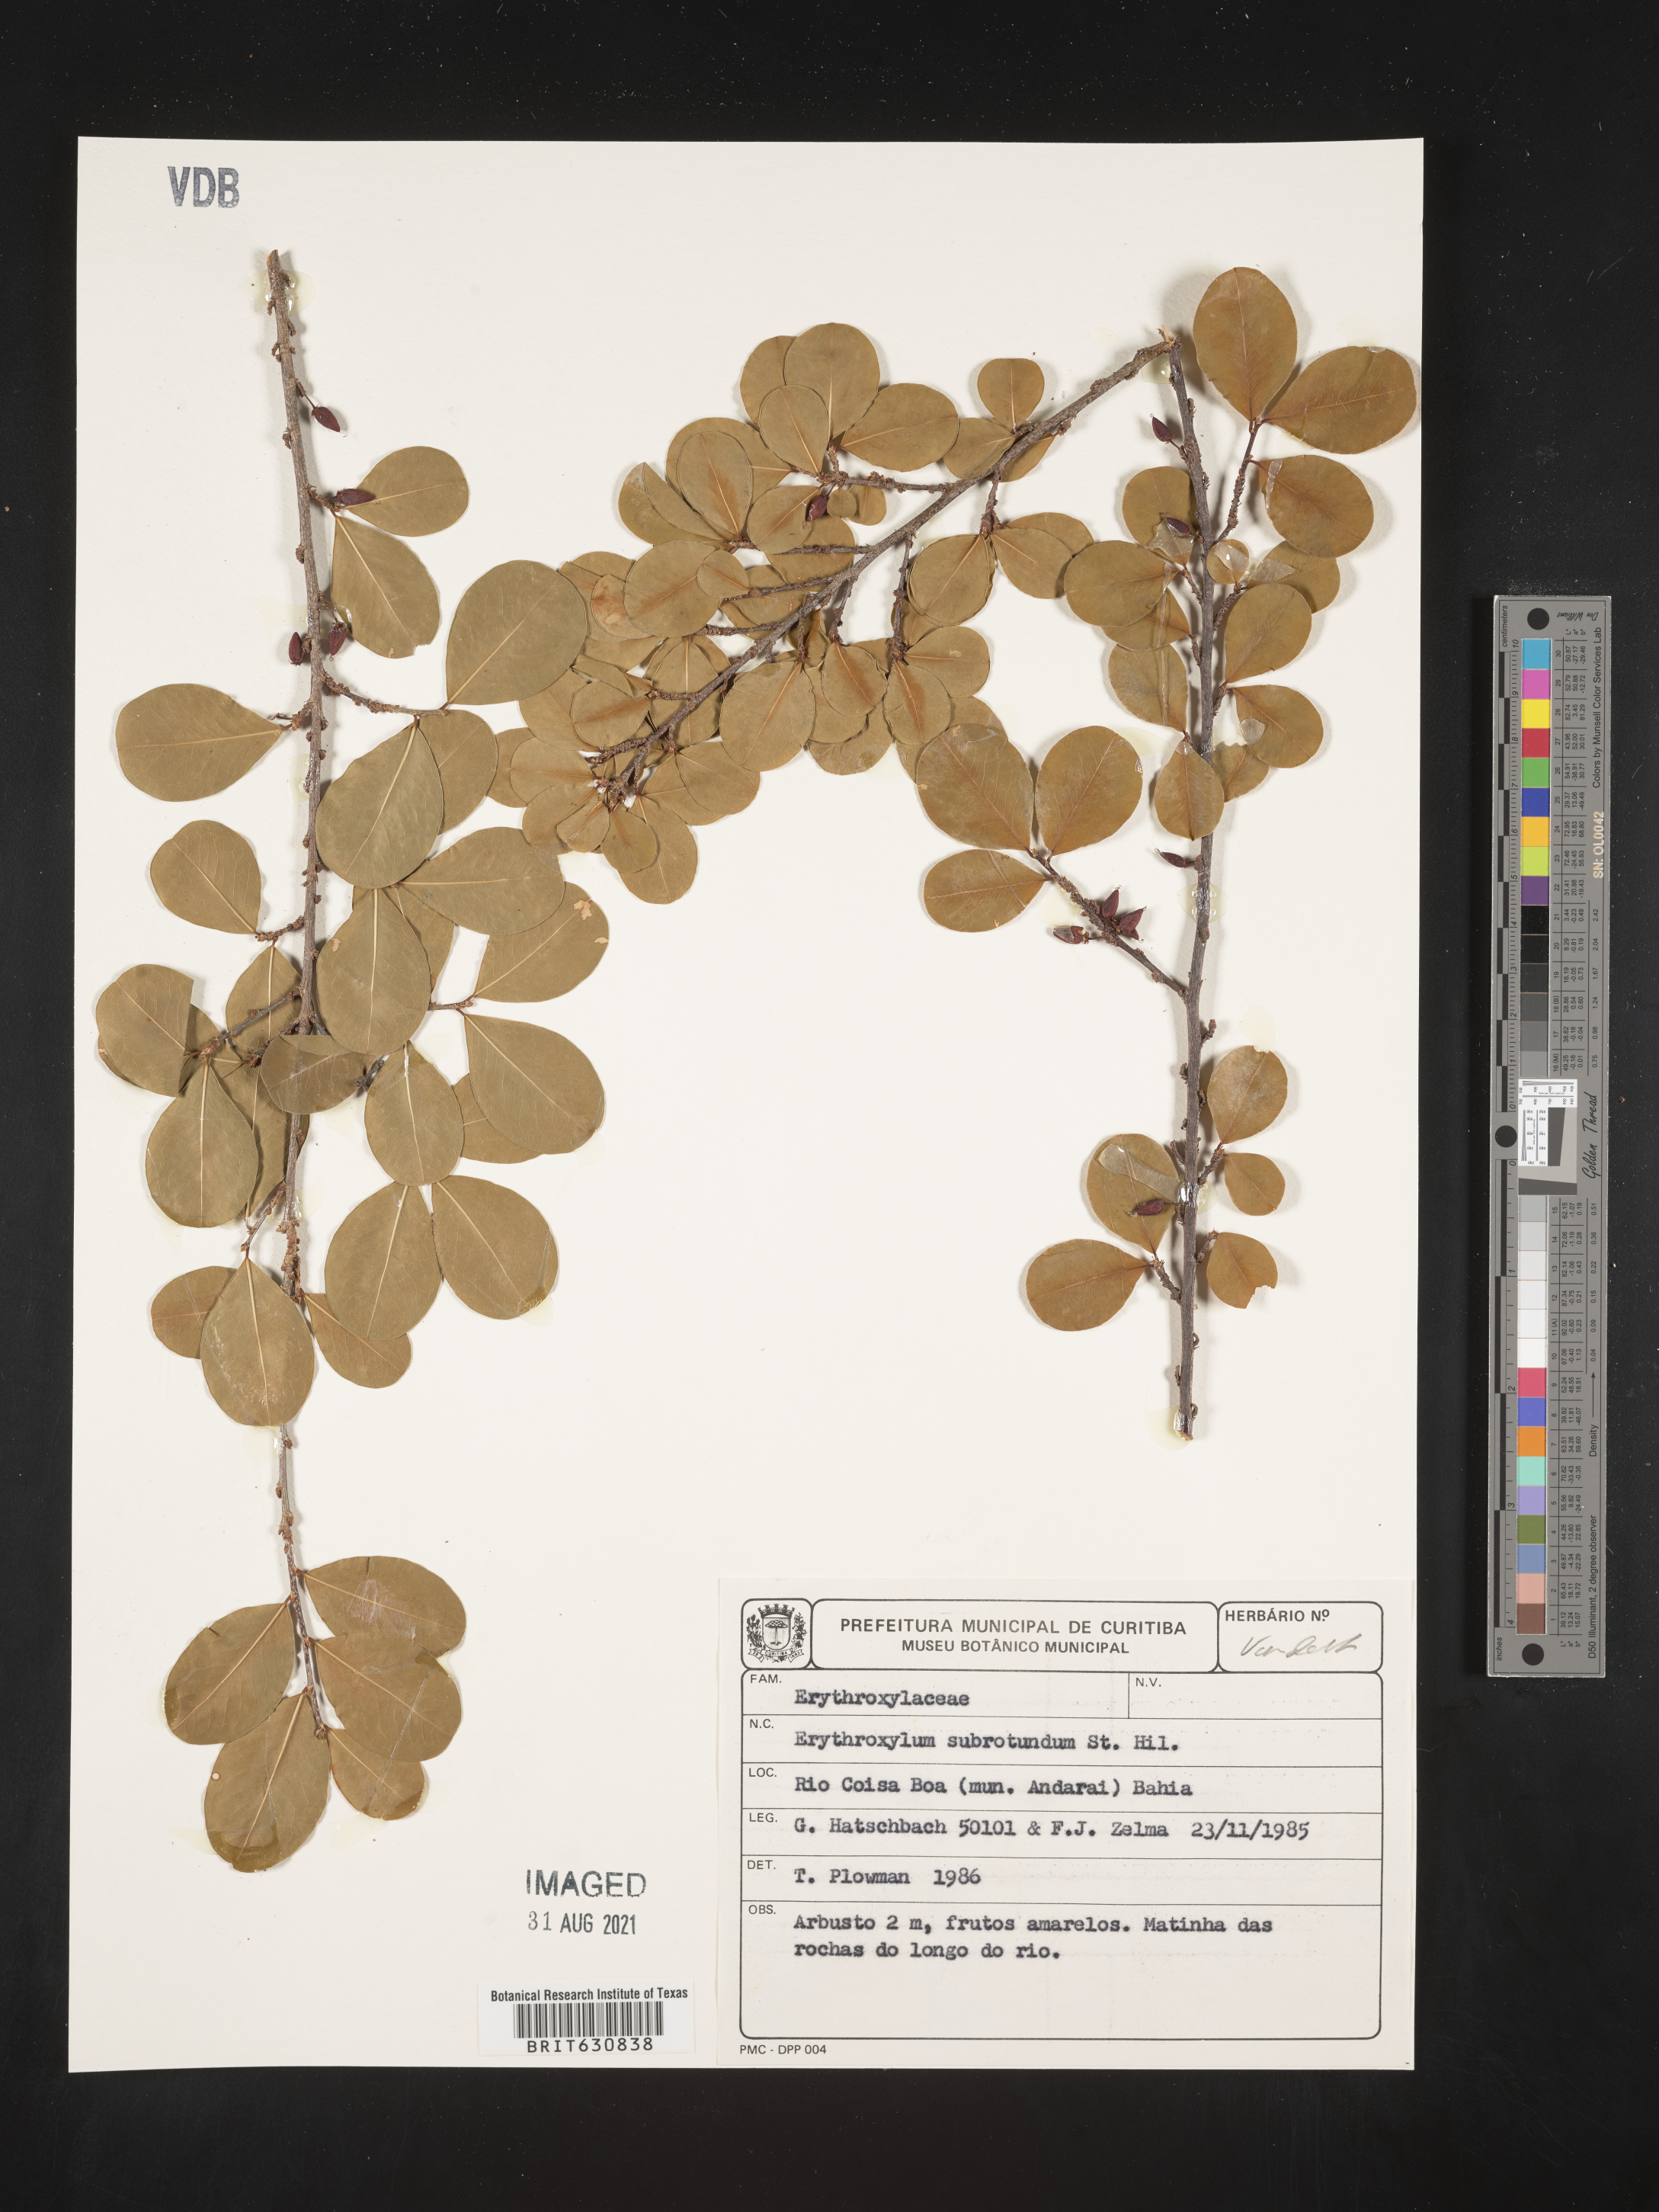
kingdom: Plantae
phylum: Tracheophyta
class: Magnoliopsida
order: Malpighiales
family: Erythroxylaceae
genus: Erythroxylum
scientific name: Erythroxylum
